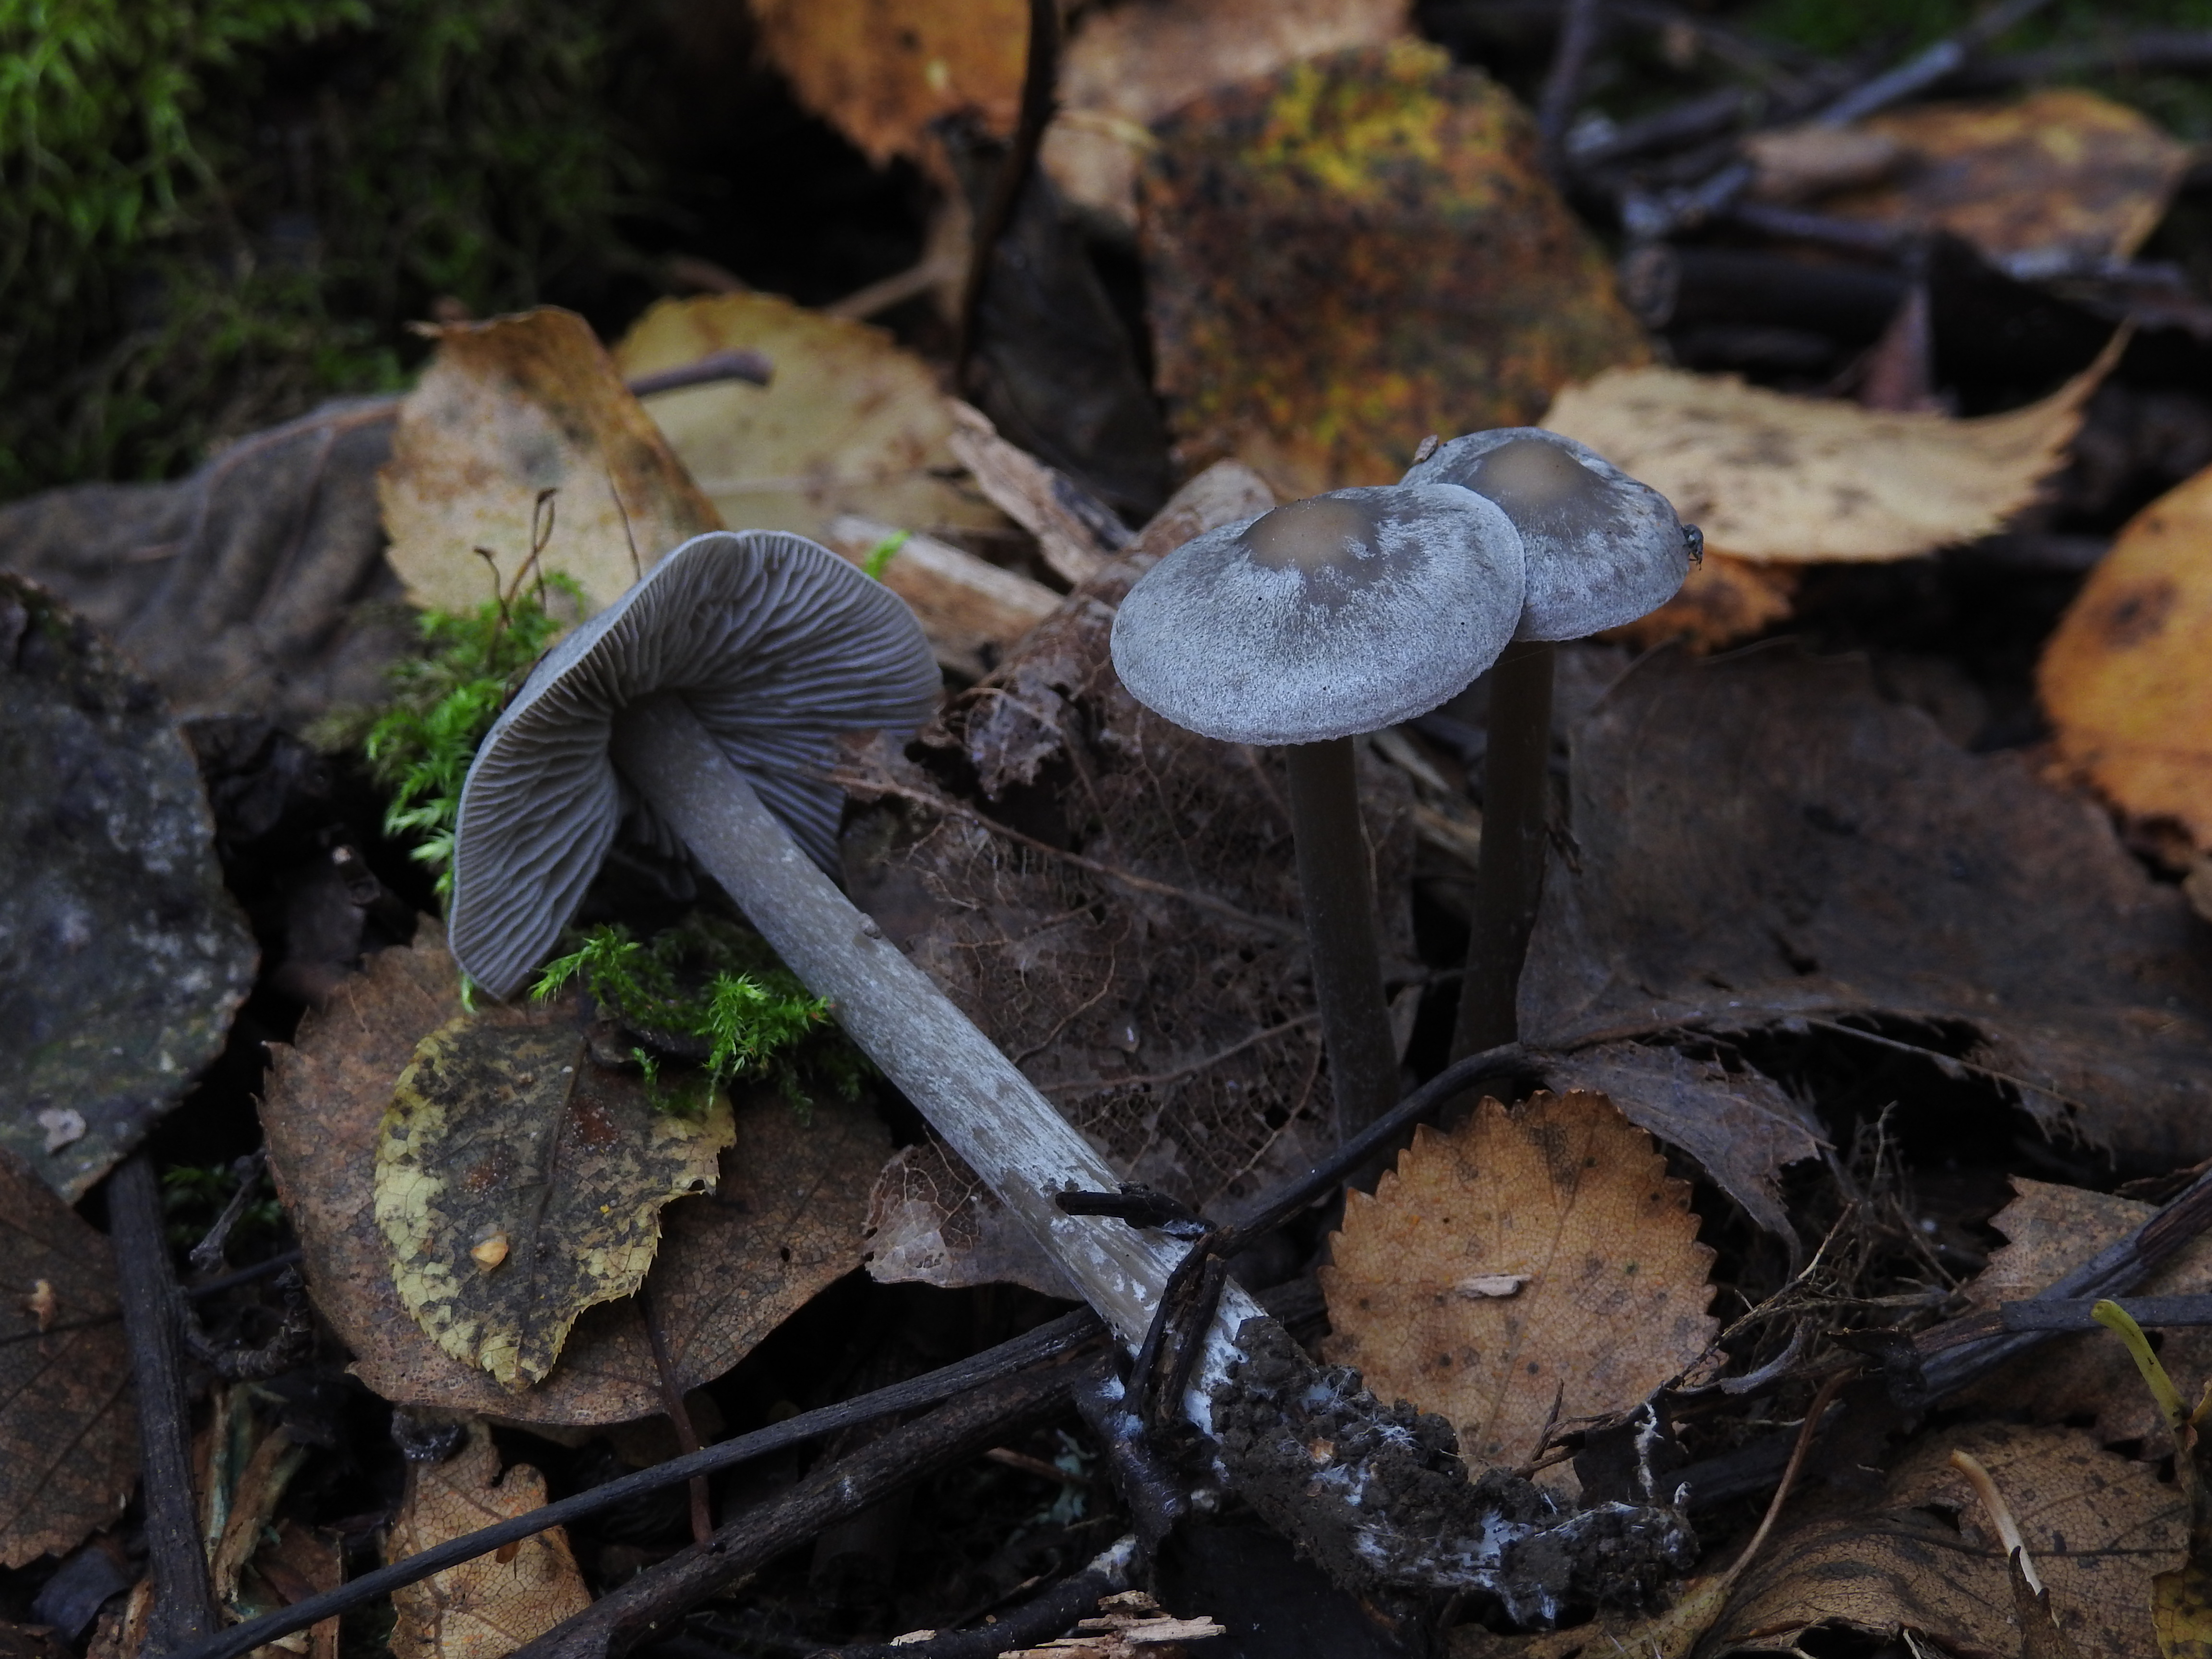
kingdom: Fungi
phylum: Basidiomycota
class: Agaricomycetes
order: Agaricales
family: Lyophyllaceae
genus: Tephrocybe
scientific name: Tephrocybe rancida
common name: Rancid greyling
